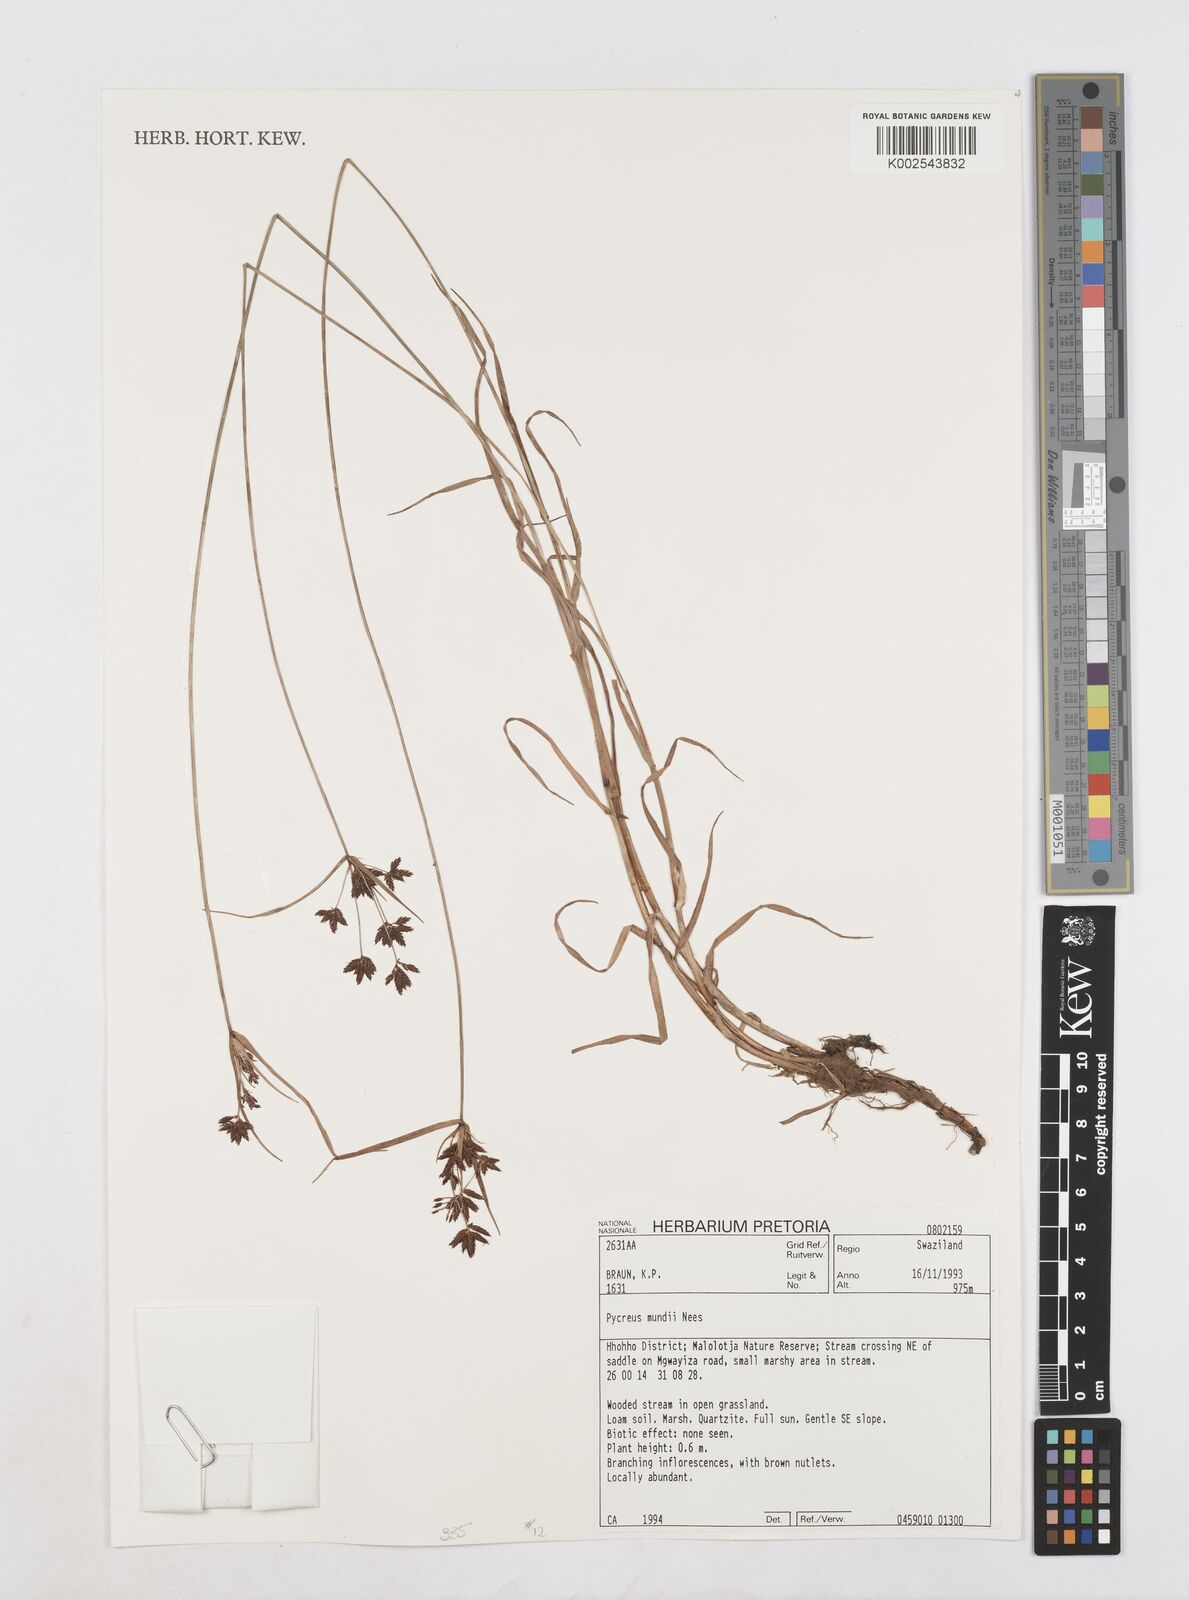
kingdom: Plantae
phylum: Tracheophyta
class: Liliopsida
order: Poales
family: Cyperaceae
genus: Cyperus
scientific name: Cyperus mundii
